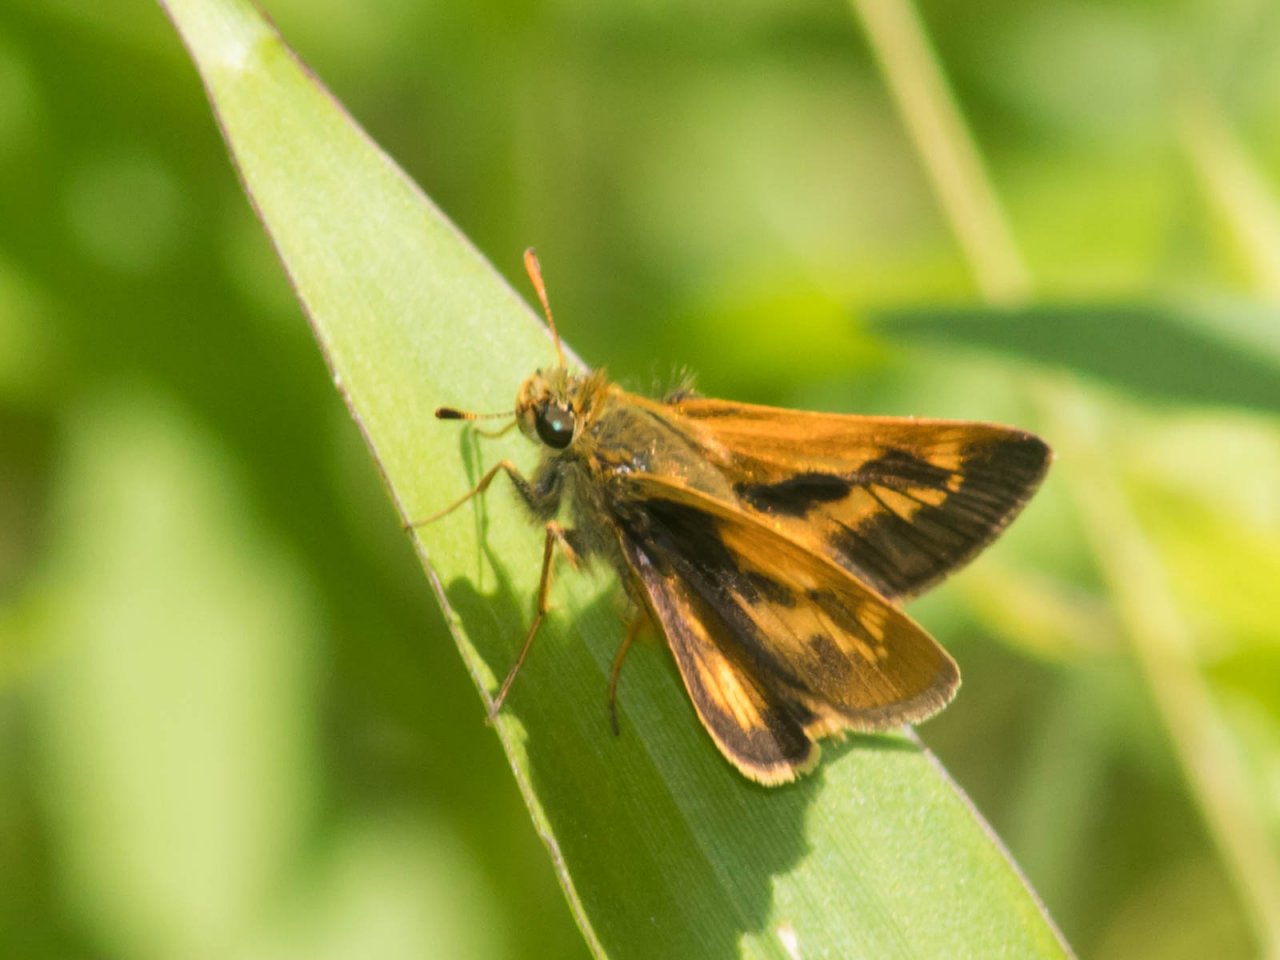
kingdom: Animalia
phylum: Arthropoda
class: Insecta
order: Lepidoptera
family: Hesperiidae
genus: Polites
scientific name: Polites
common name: Long Dash Skipper
